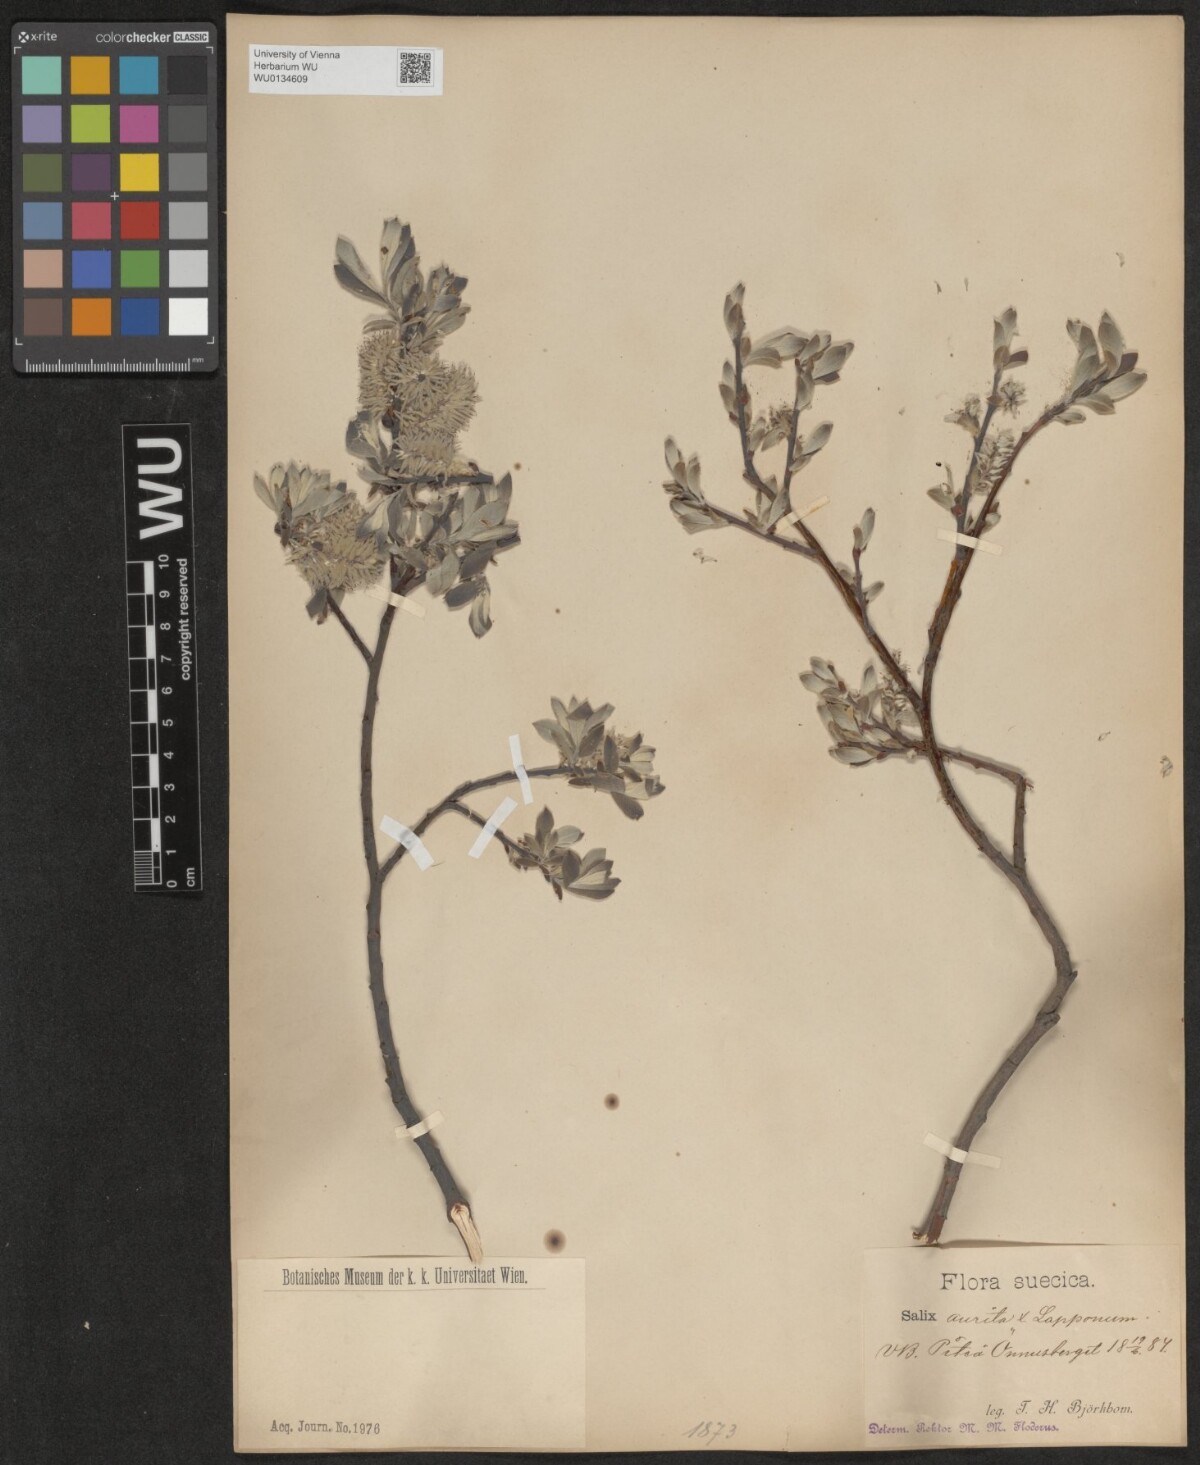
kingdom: Plantae
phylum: Tracheophyta
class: Magnoliopsida
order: Malpighiales
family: Salicaceae
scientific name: Salicaceae
